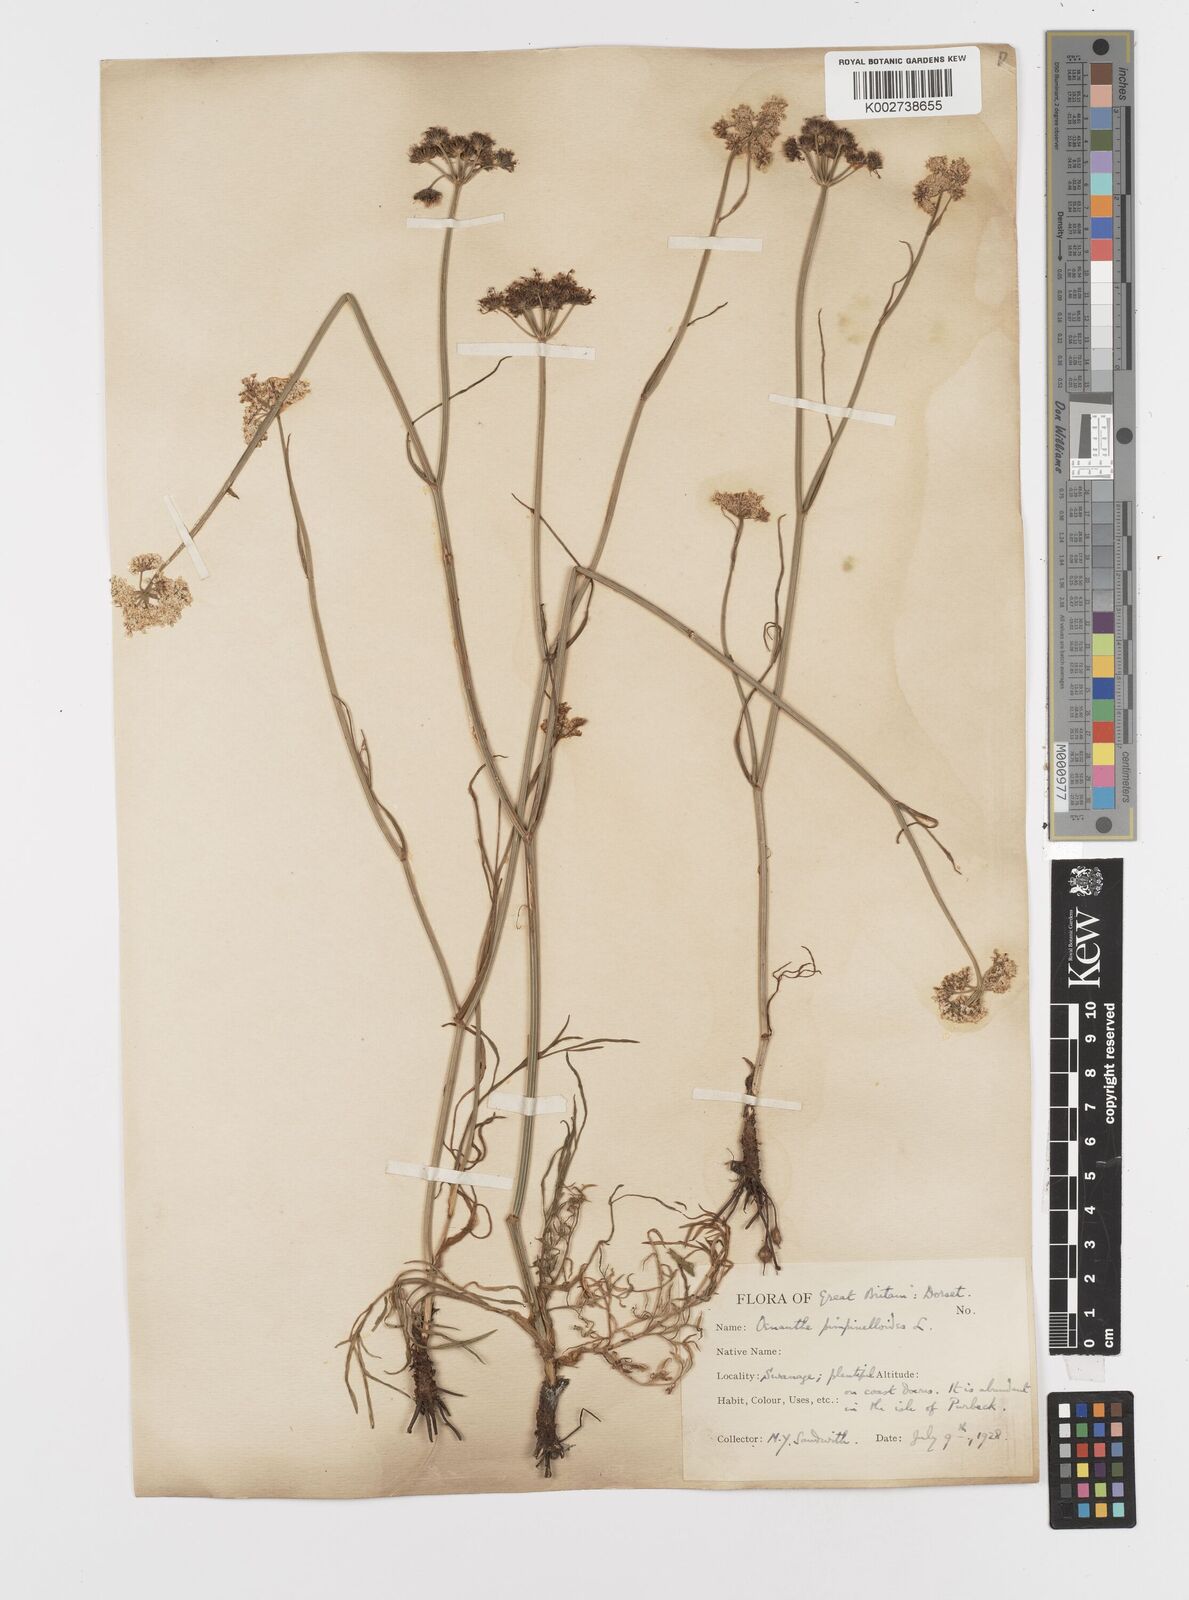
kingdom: Plantae
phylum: Tracheophyta
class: Magnoliopsida
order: Apiales
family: Apiaceae
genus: Oenanthe
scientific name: Oenanthe pimpinelloides
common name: Corky-fruited water-dropwort
